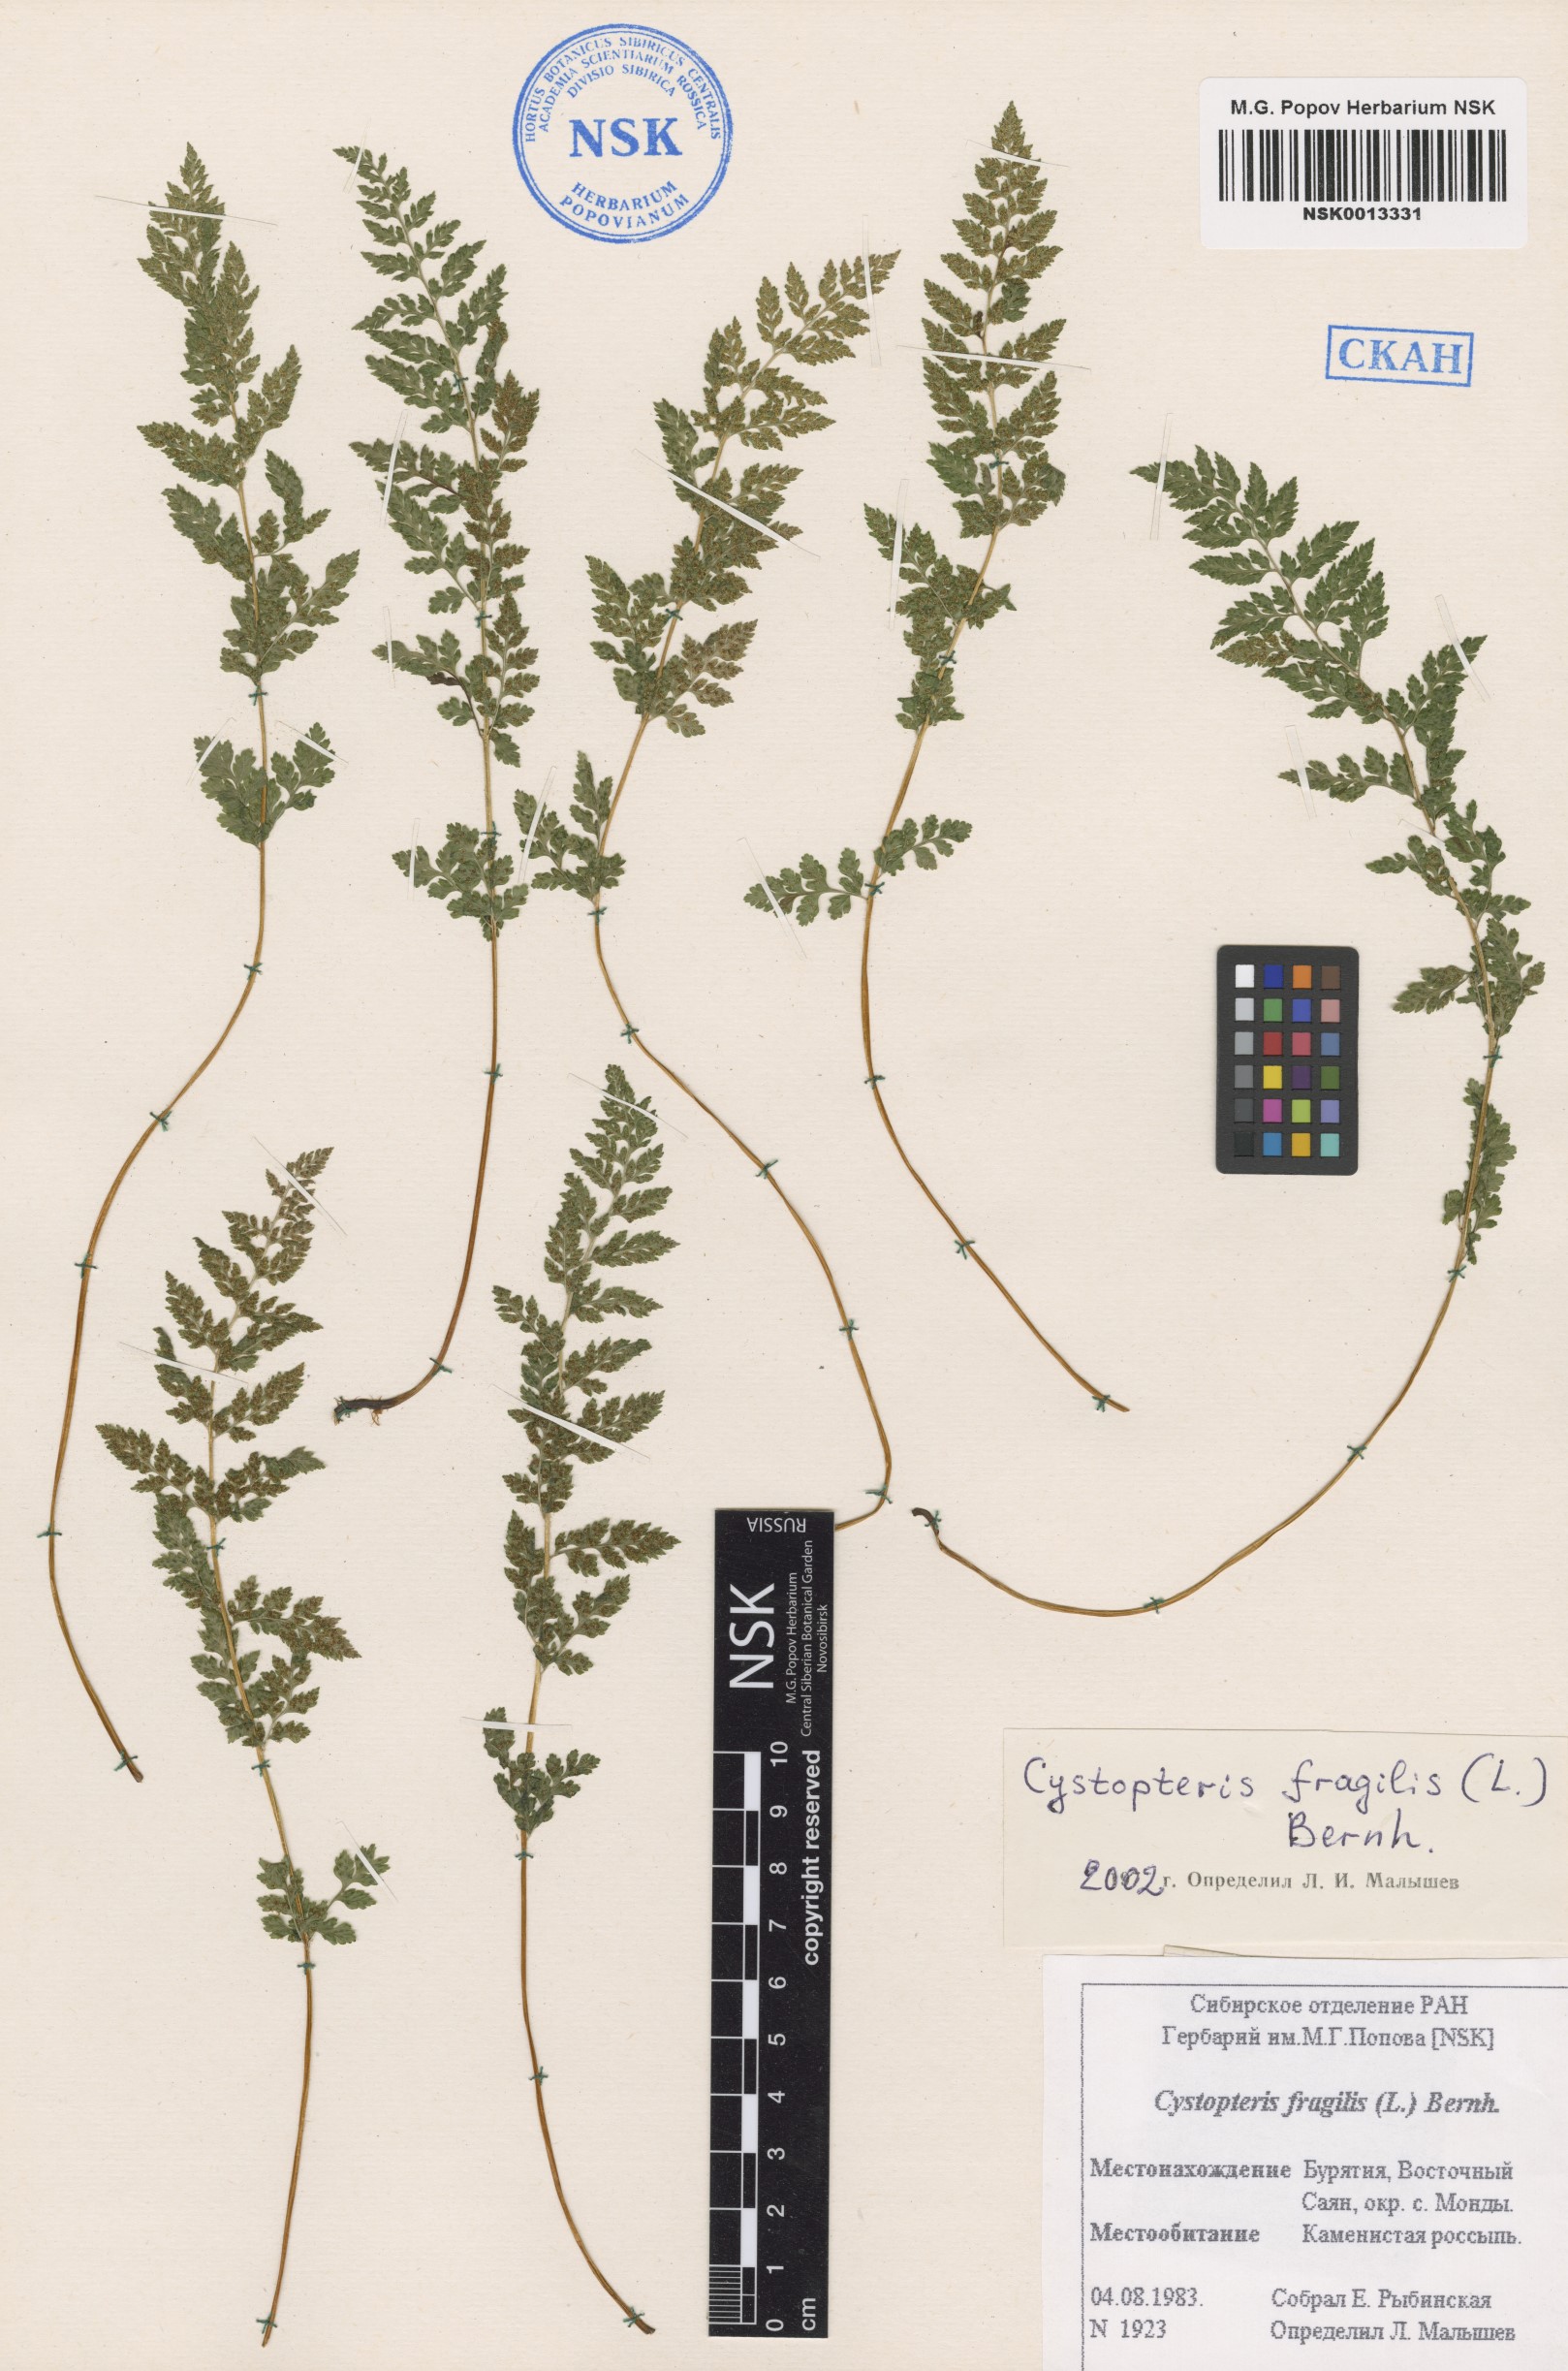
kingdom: Plantae
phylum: Tracheophyta
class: Polypodiopsida
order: Polypodiales
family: Cystopteridaceae
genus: Cystopteris
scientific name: Cystopteris fragilis
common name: Brittle bladder fern
